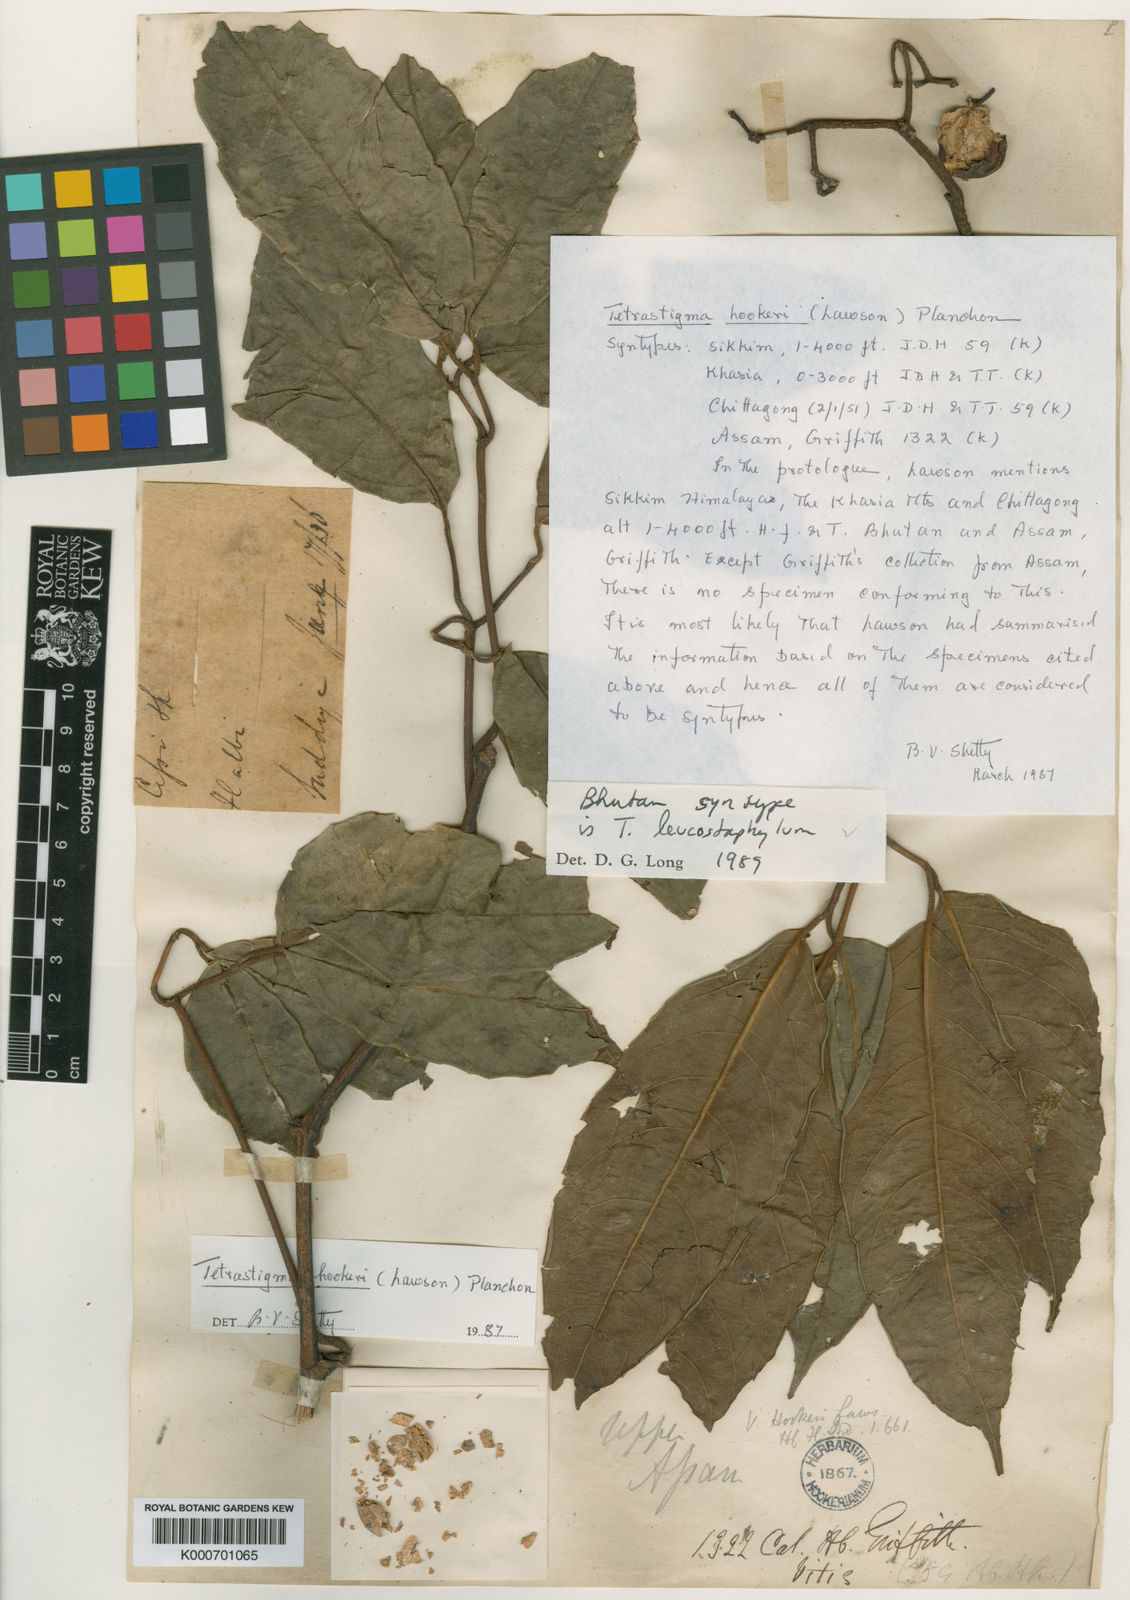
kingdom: Plantae
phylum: Tracheophyta
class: Magnoliopsida
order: Vitales
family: Vitaceae
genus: Tetrastigma
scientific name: Tetrastigma hookeri
